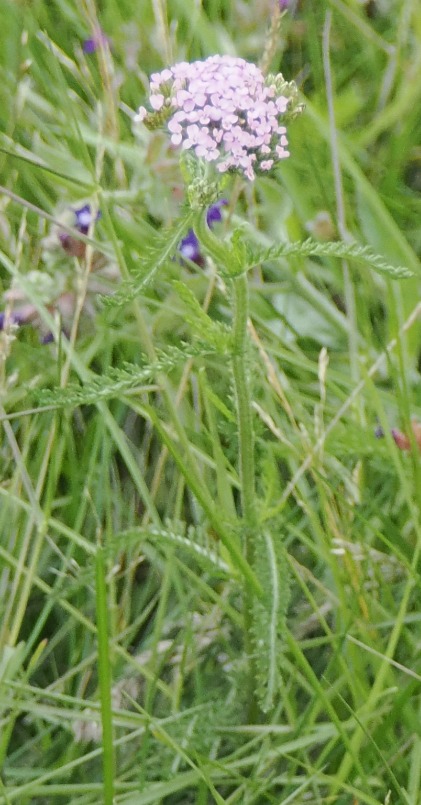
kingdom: Plantae
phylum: Tracheophyta
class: Magnoliopsida
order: Asterales
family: Asteraceae
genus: Achillea
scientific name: Achillea millefolium
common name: Almindelig røllike
